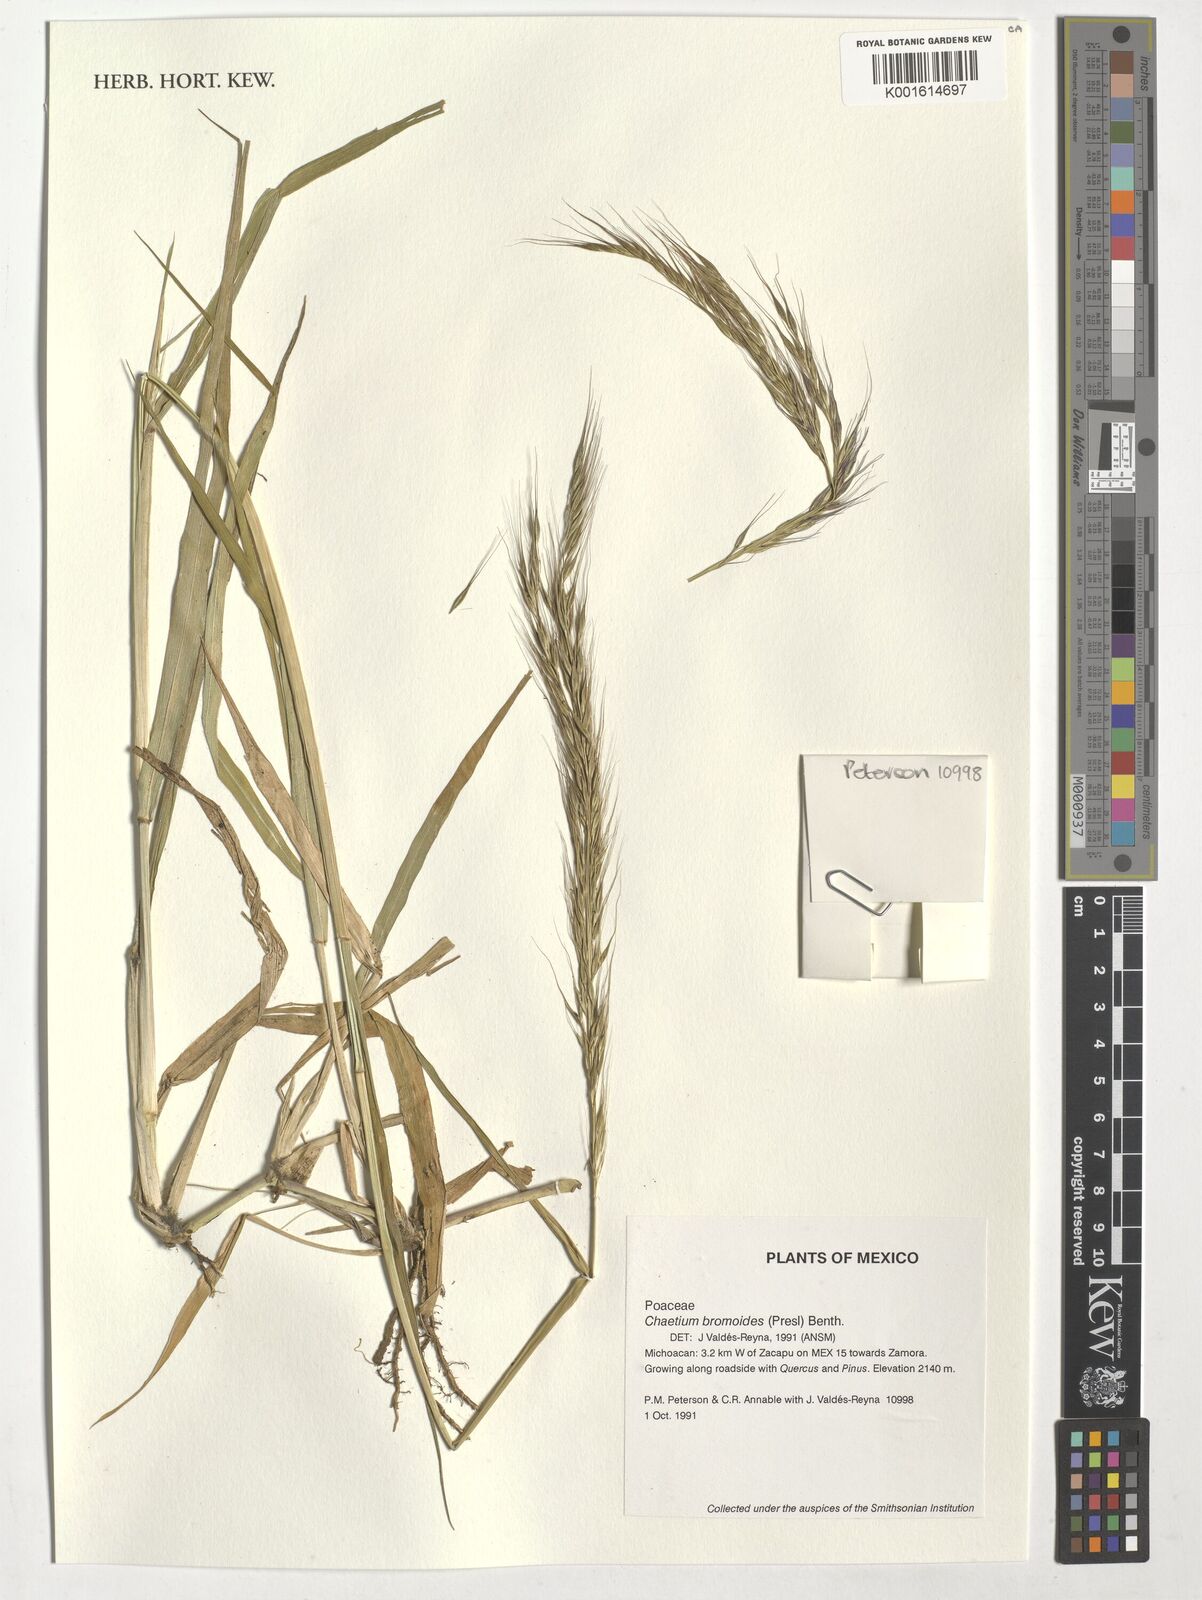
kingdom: Plantae
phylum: Tracheophyta
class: Liliopsida
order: Poales
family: Poaceae
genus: Chaetium
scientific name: Chaetium bromoides
